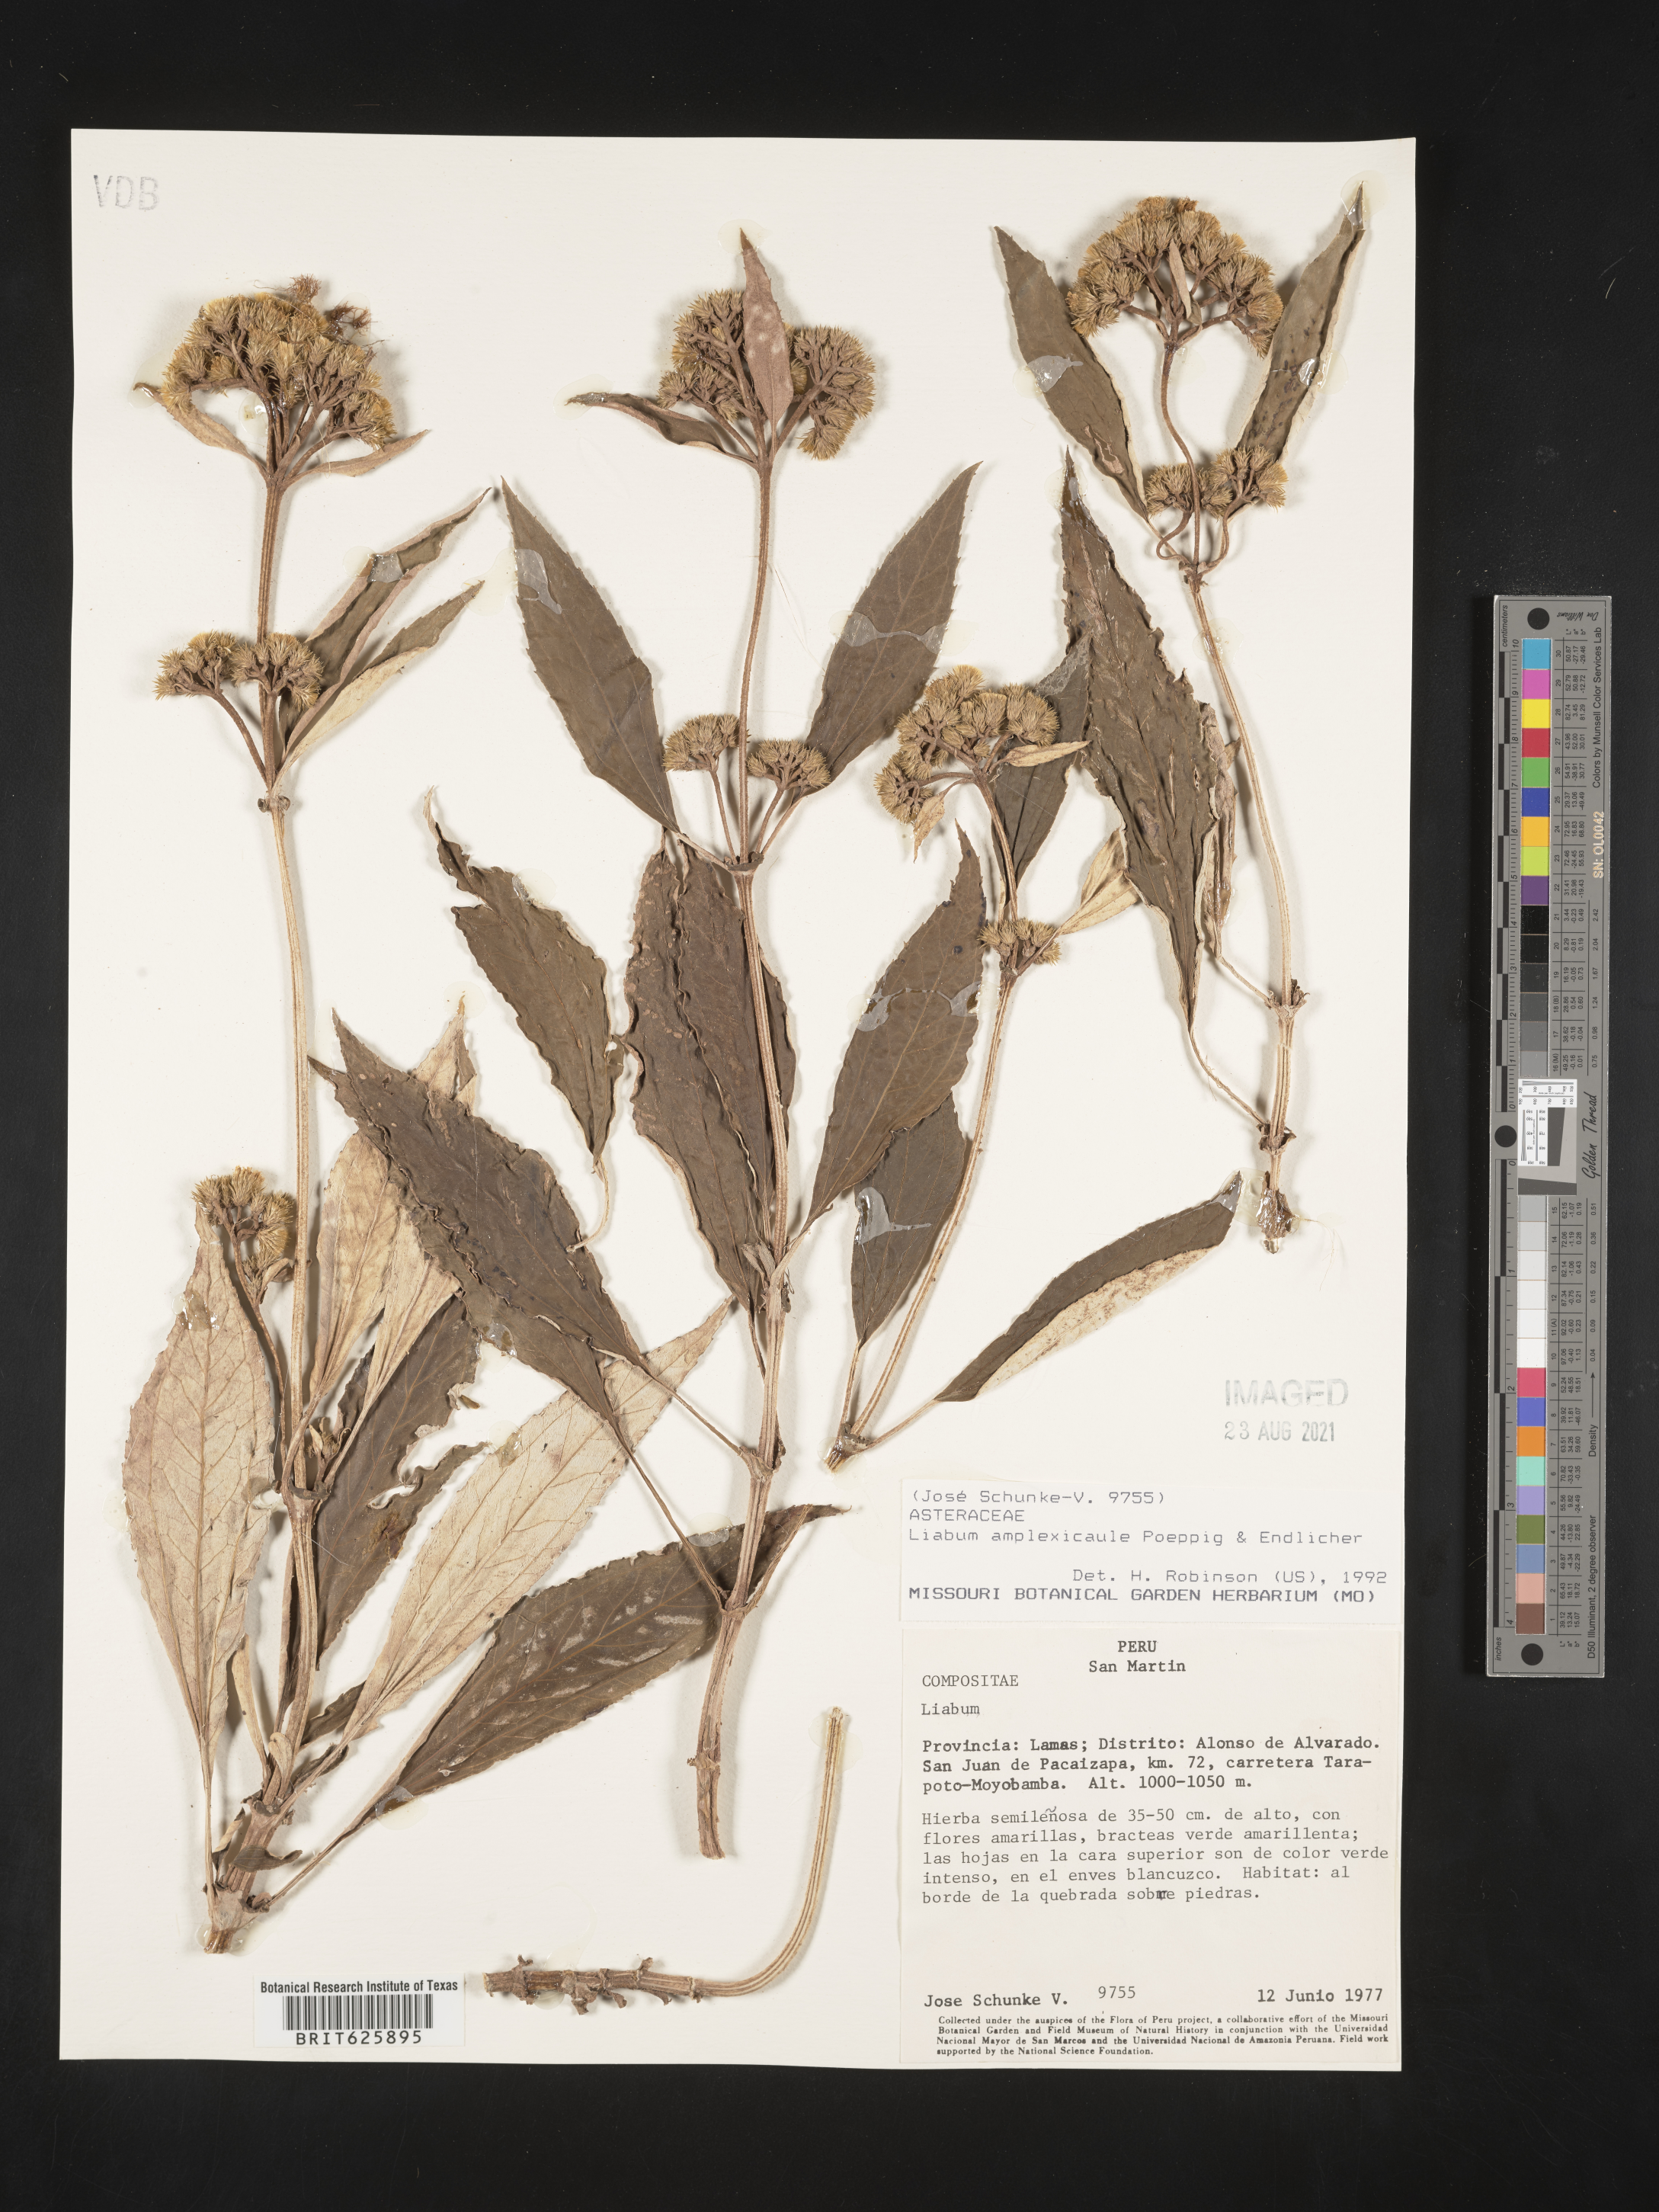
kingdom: Plantae
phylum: Tracheophyta
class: Magnoliopsida
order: Asterales
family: Asteraceae
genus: Liabum
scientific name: Liabum amplexicaule
